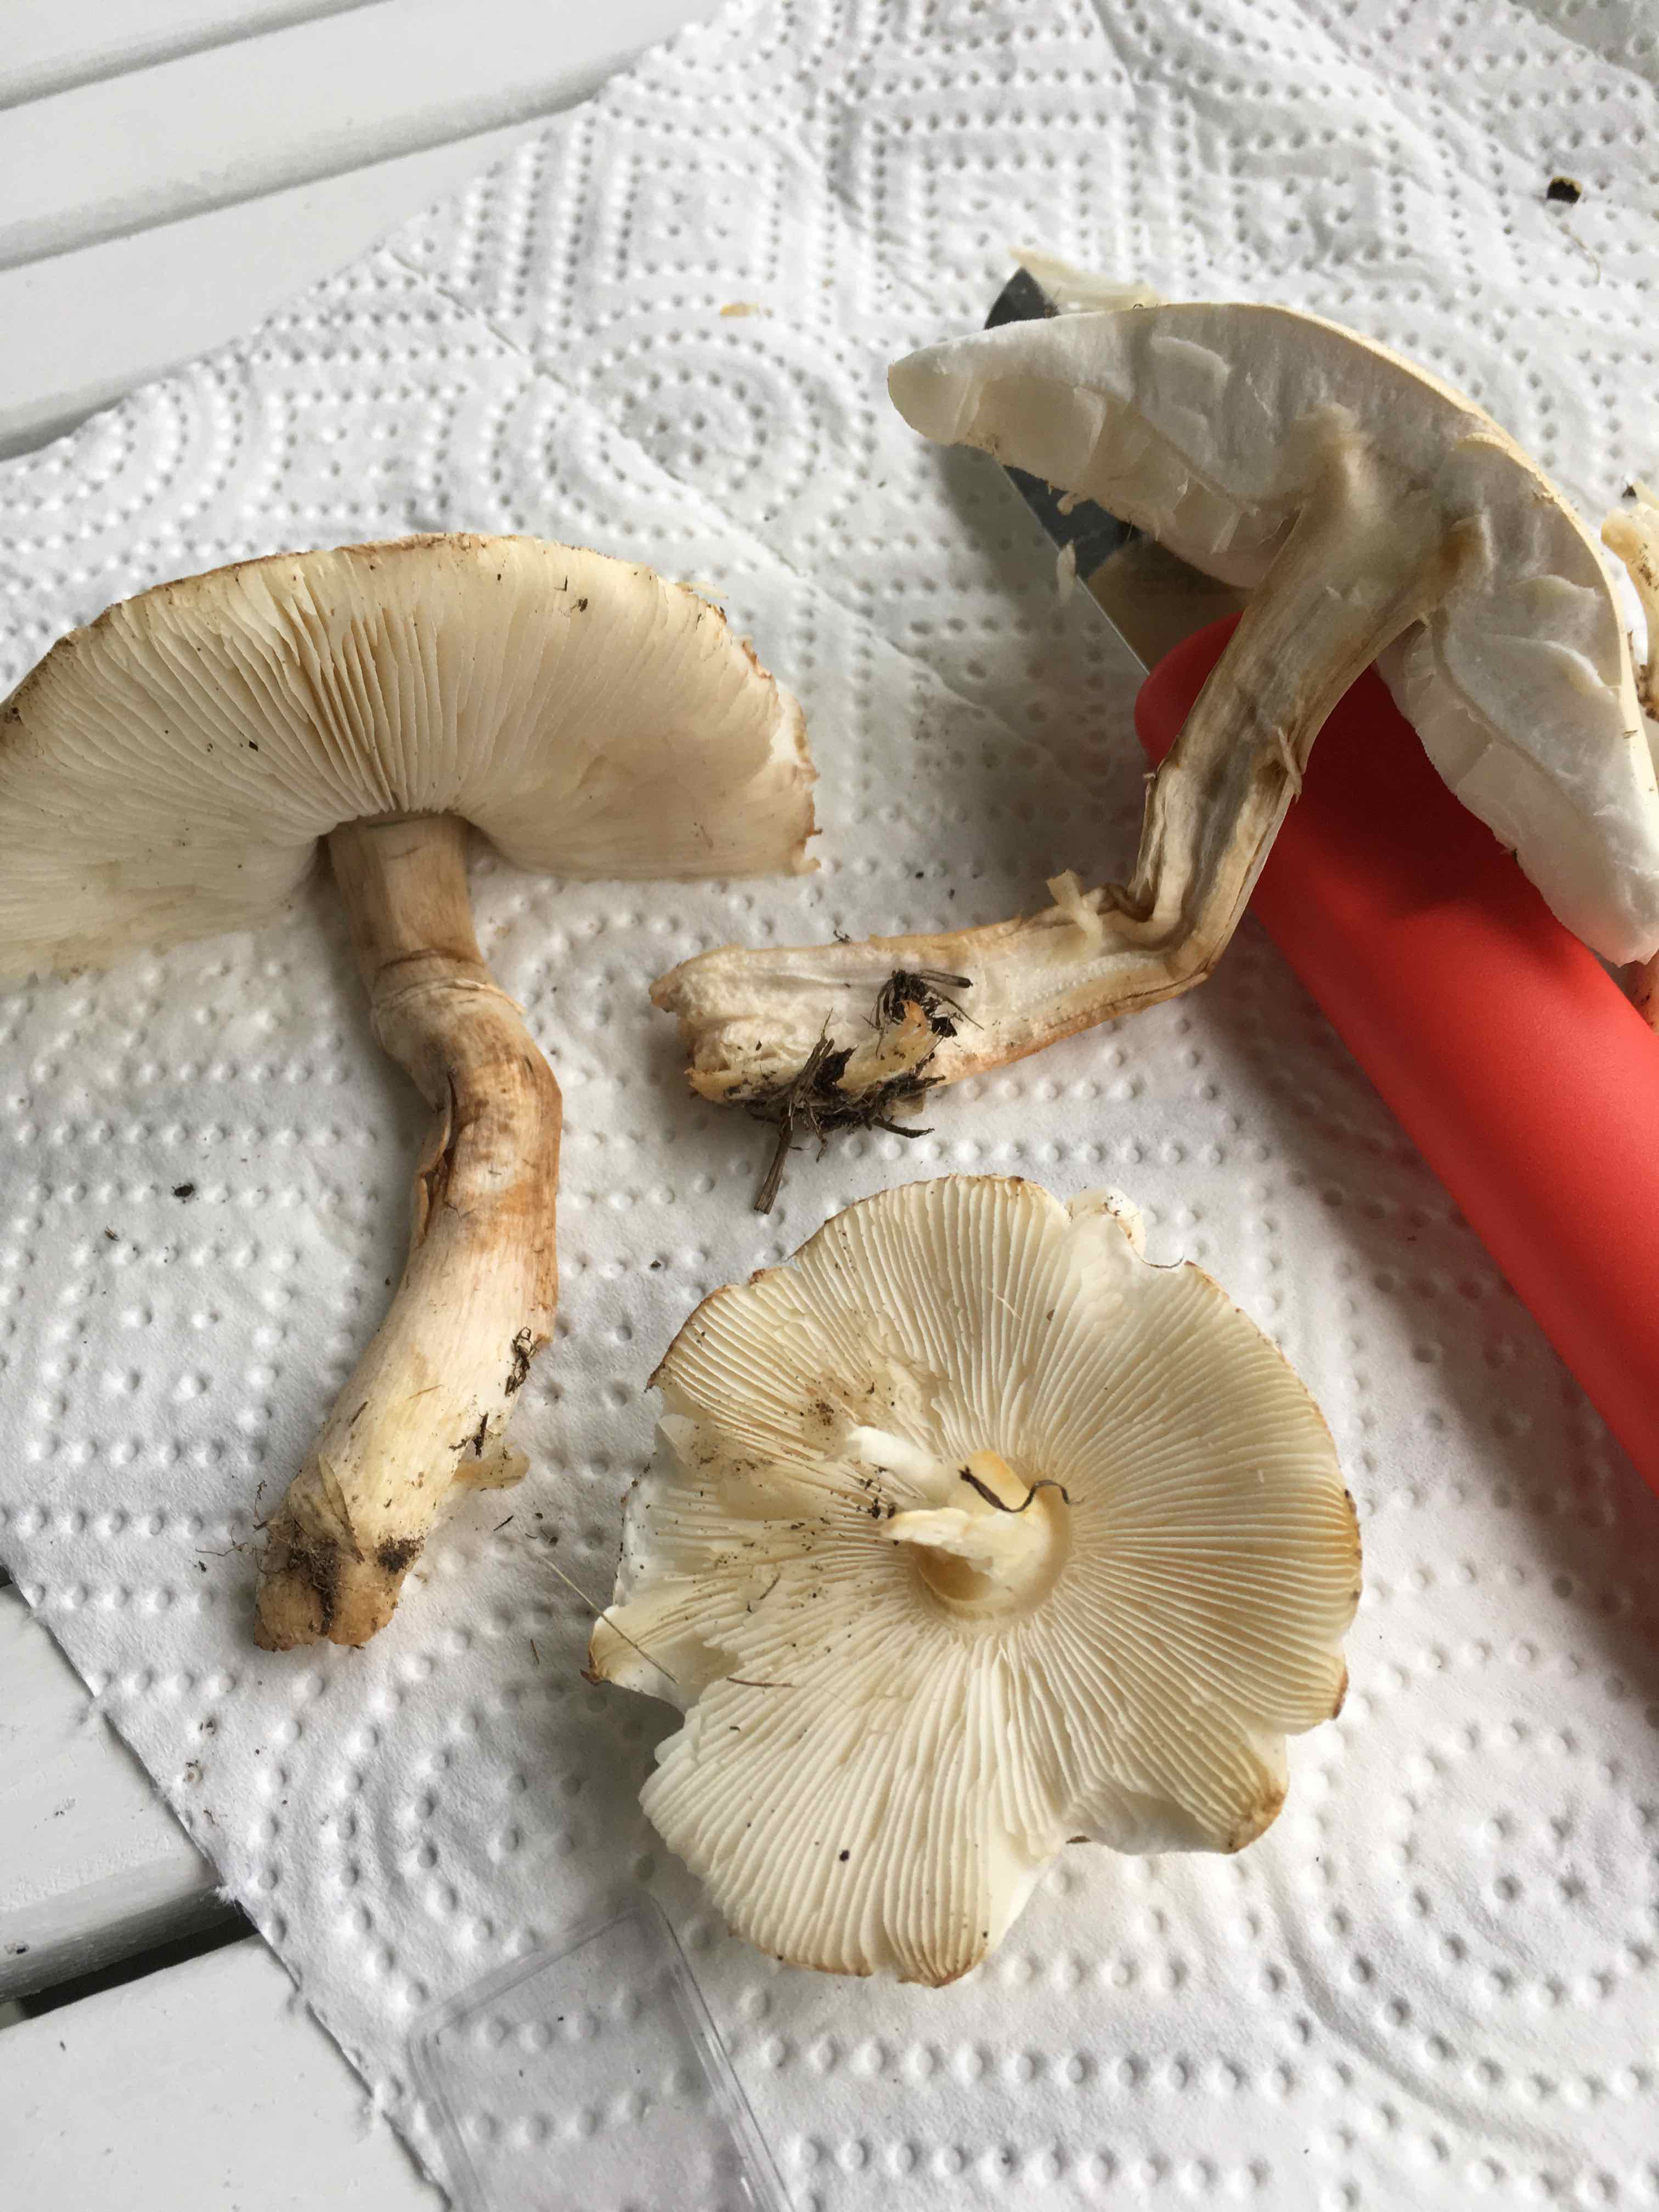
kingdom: Fungi
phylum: Basidiomycota
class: Agaricomycetes
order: Agaricales
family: Agaricaceae
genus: Leucoagaricus
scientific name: Leucoagaricus
